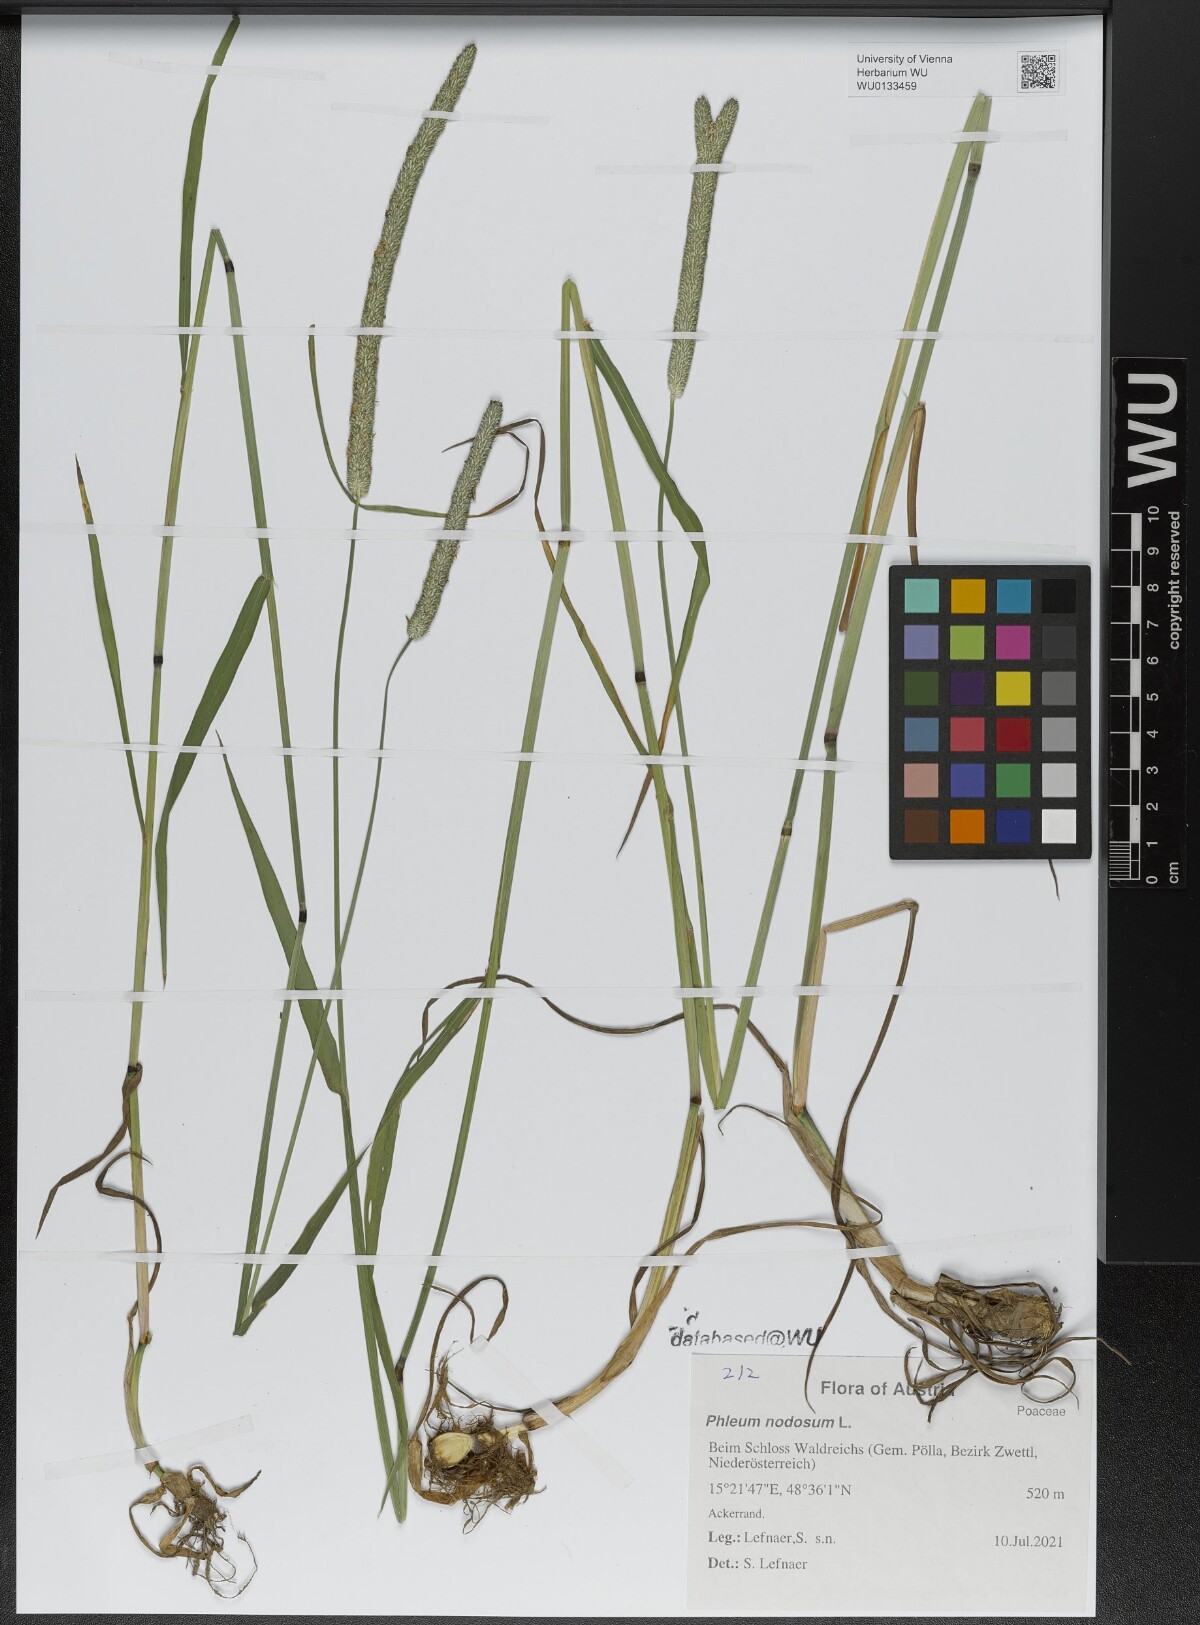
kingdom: Plantae
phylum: Tracheophyta
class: Liliopsida
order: Poales
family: Poaceae
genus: Phleum
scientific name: Phleum pratense
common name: Timothy grass
